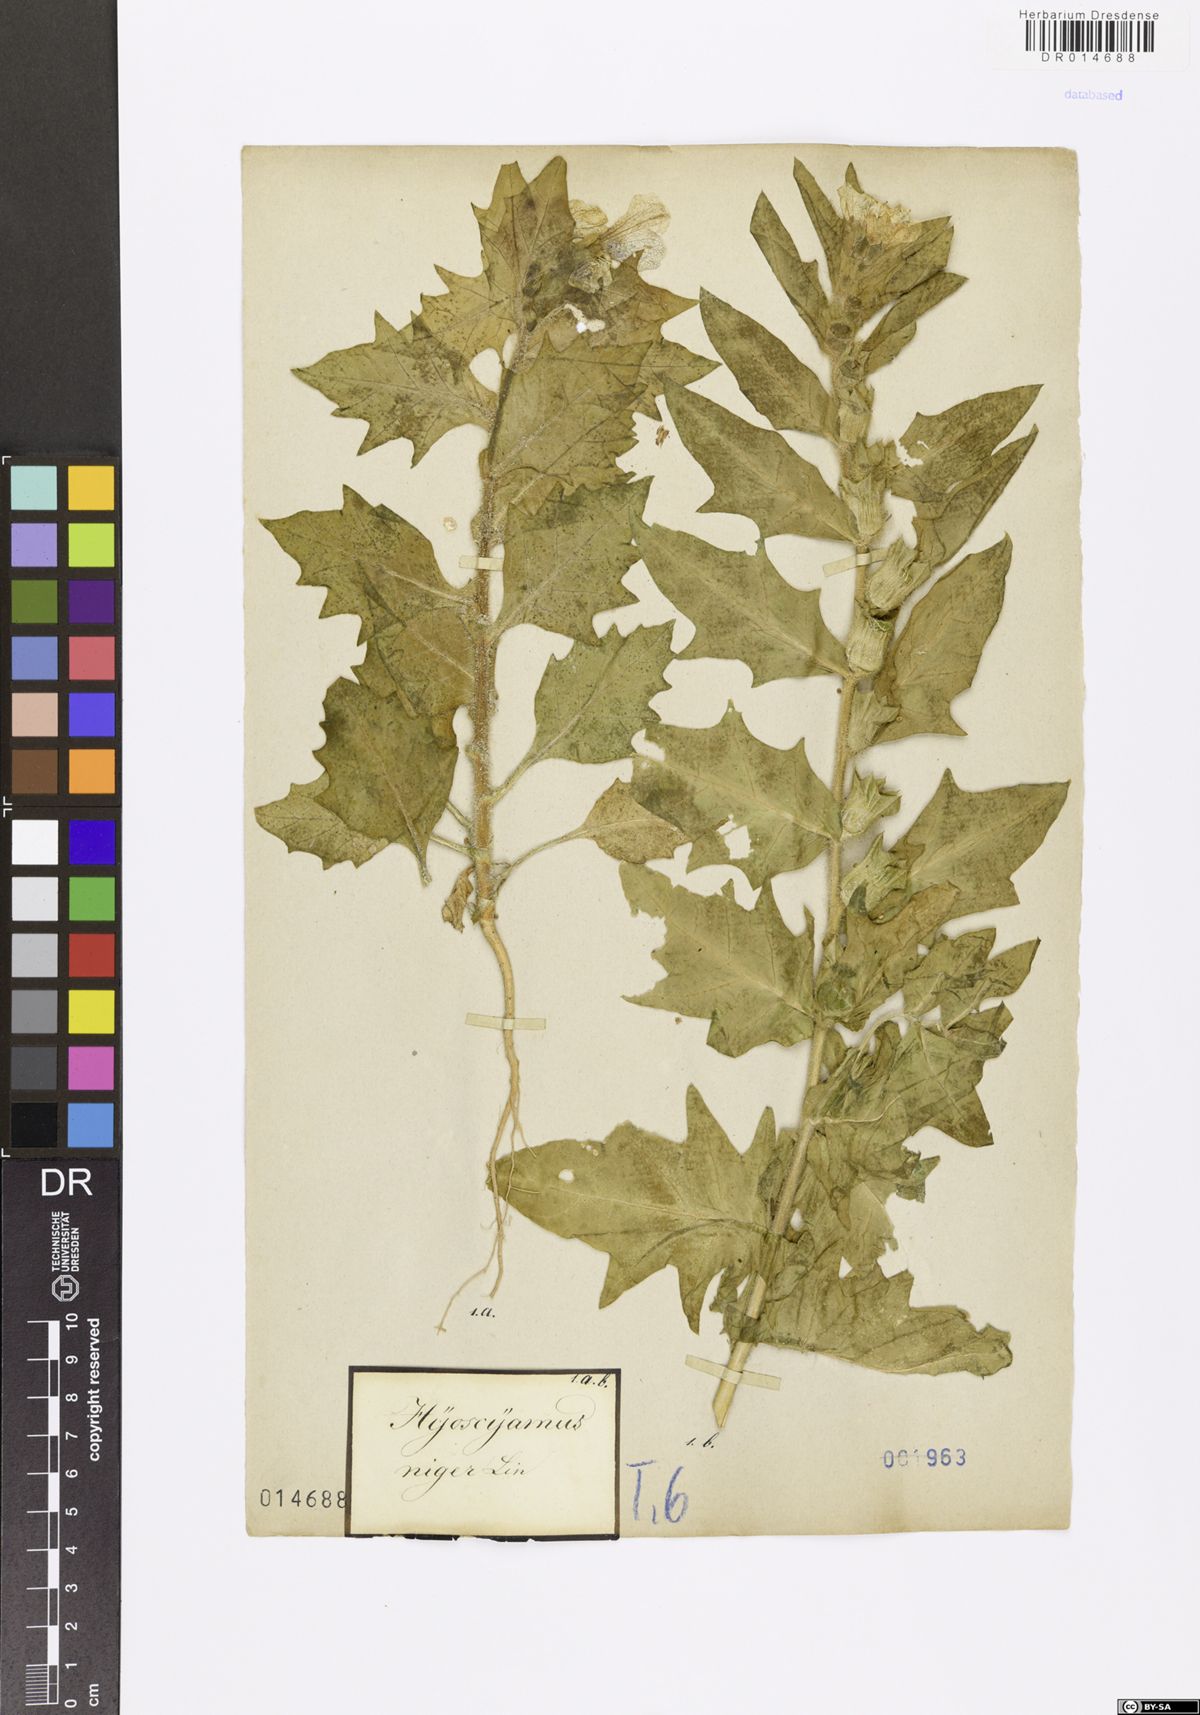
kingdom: Plantae
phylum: Tracheophyta
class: Magnoliopsida
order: Solanales
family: Solanaceae
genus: Hyoscyamus
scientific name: Hyoscyamus niger
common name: Henbane
